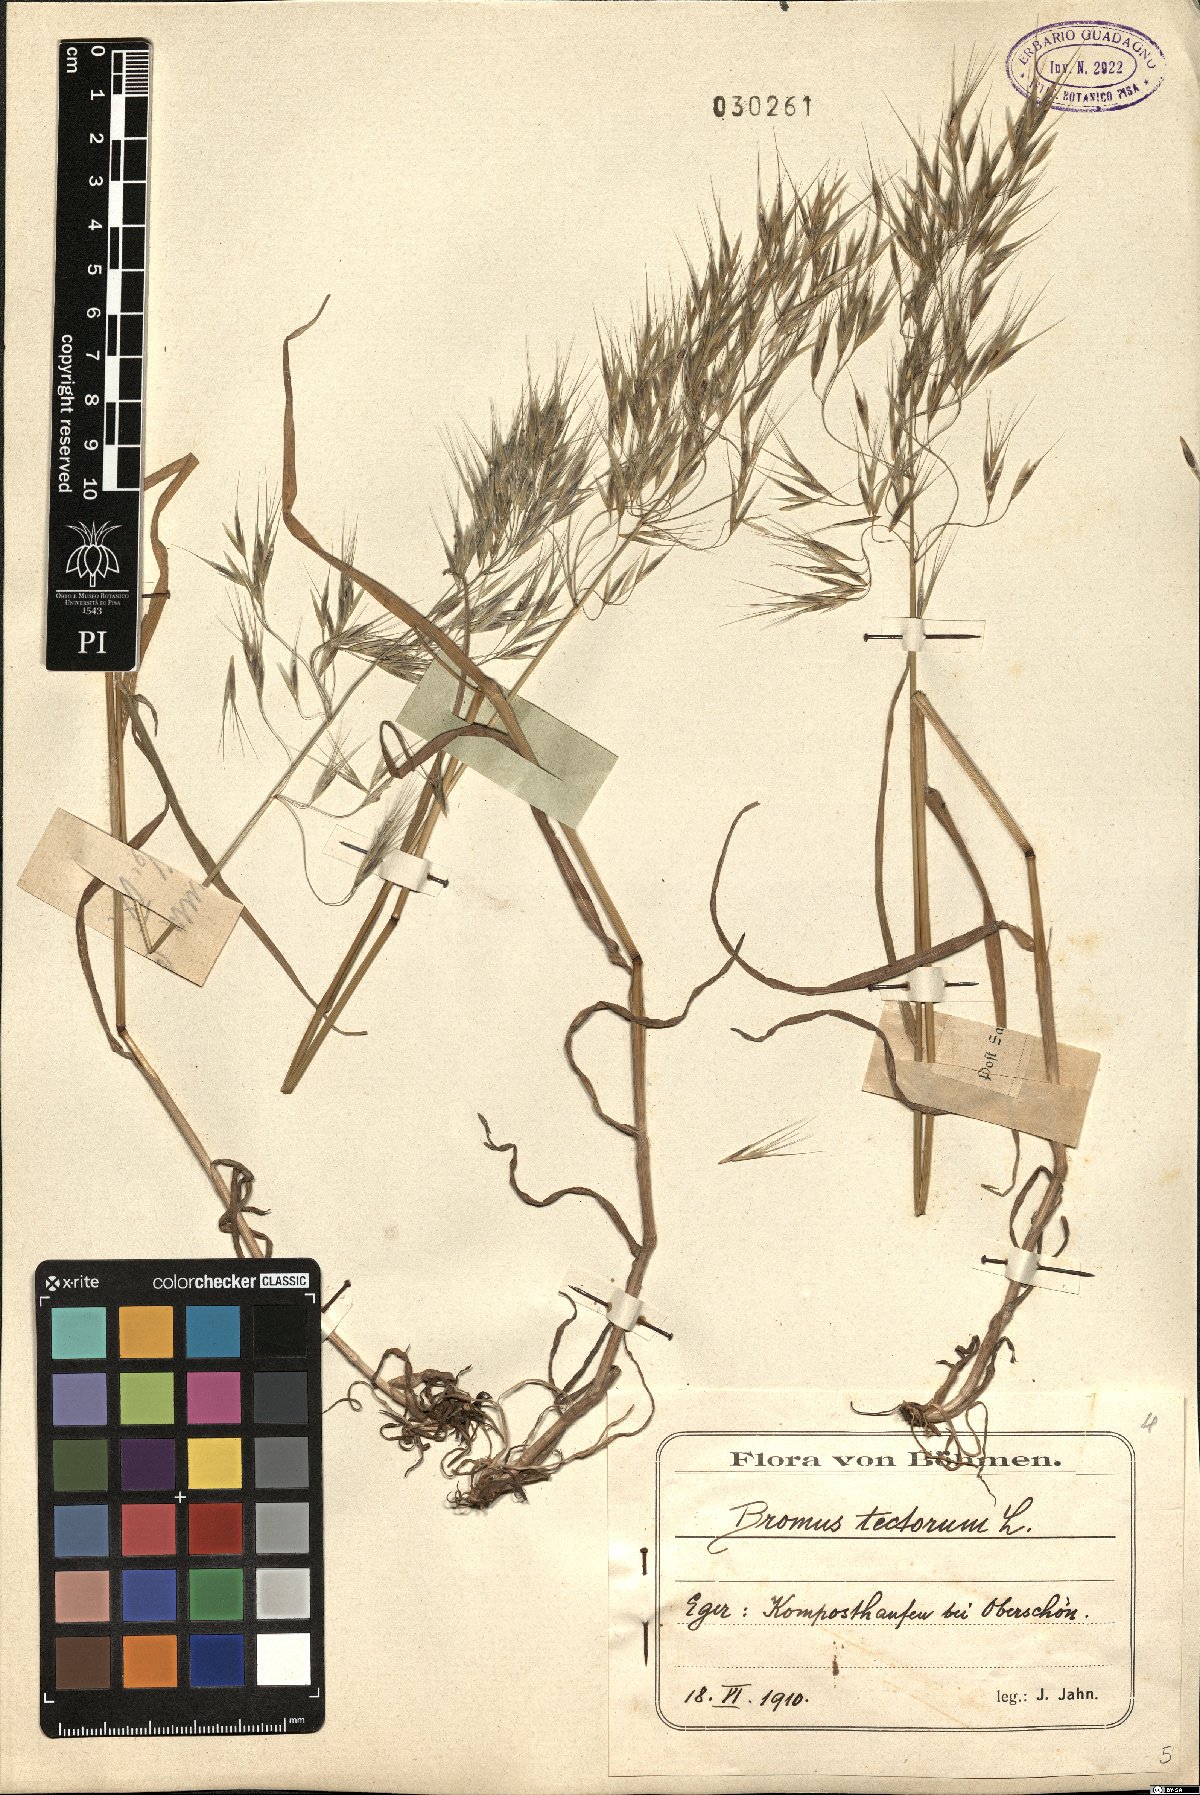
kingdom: Plantae
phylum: Tracheophyta
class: Liliopsida
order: Poales
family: Poaceae
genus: Bromus
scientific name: Bromus tectorum
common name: Cheatgrass
